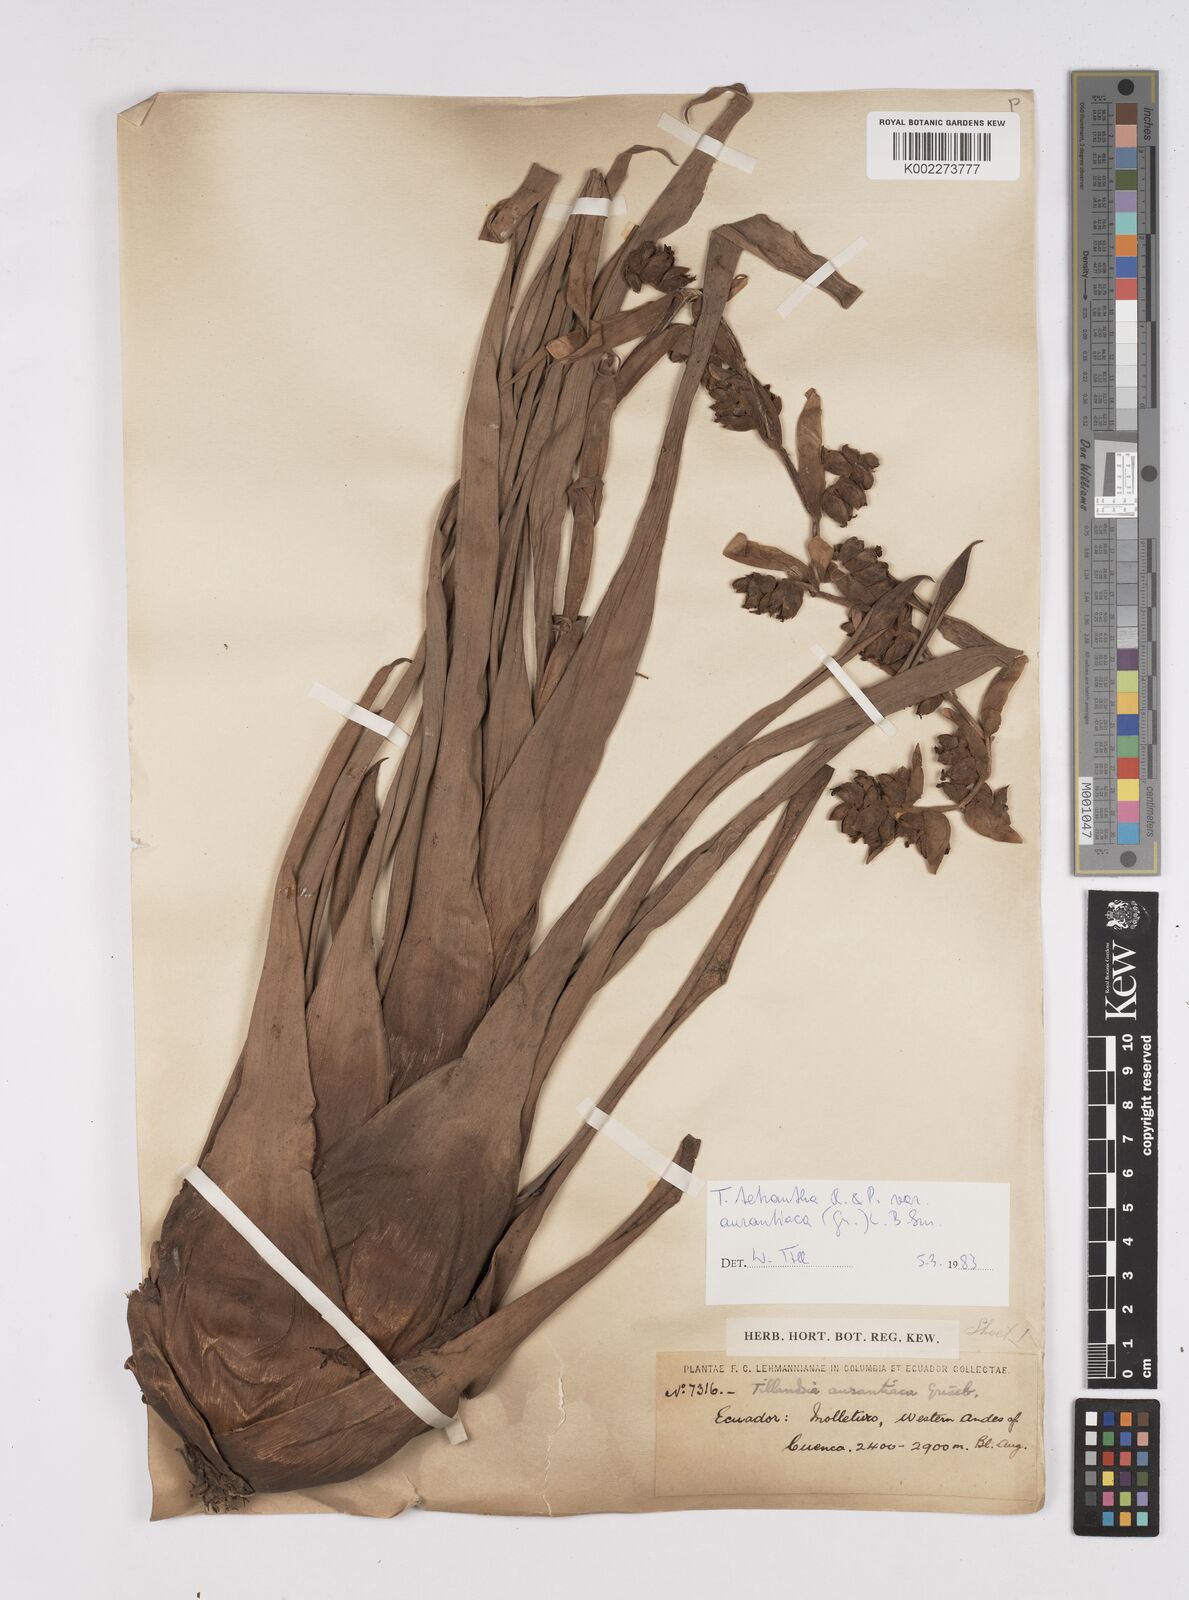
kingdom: Plantae
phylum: Tracheophyta
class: Liliopsida
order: Poales
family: Bromeliaceae
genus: Racinaea
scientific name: Racinaea tetrantha
